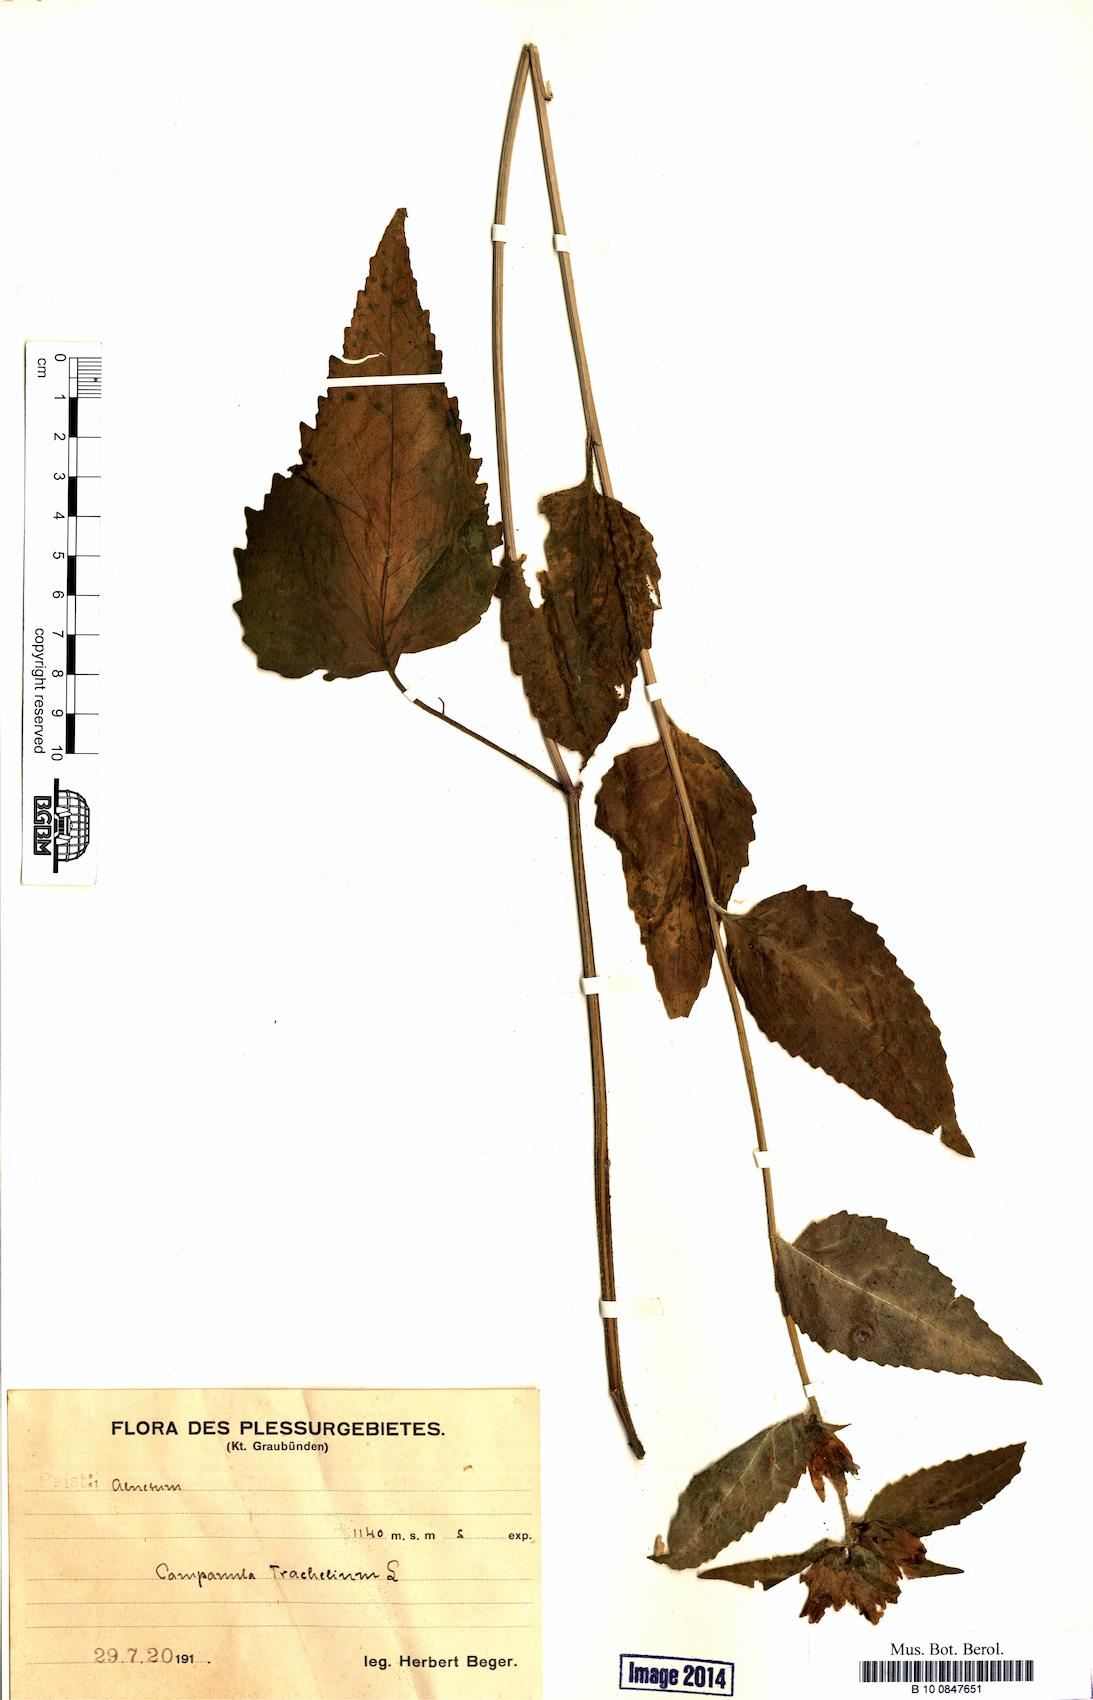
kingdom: Plantae
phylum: Tracheophyta
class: Magnoliopsida
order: Asterales
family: Campanulaceae
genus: Campanula
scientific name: Campanula trachelium
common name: Nettle-leaved bellflower
